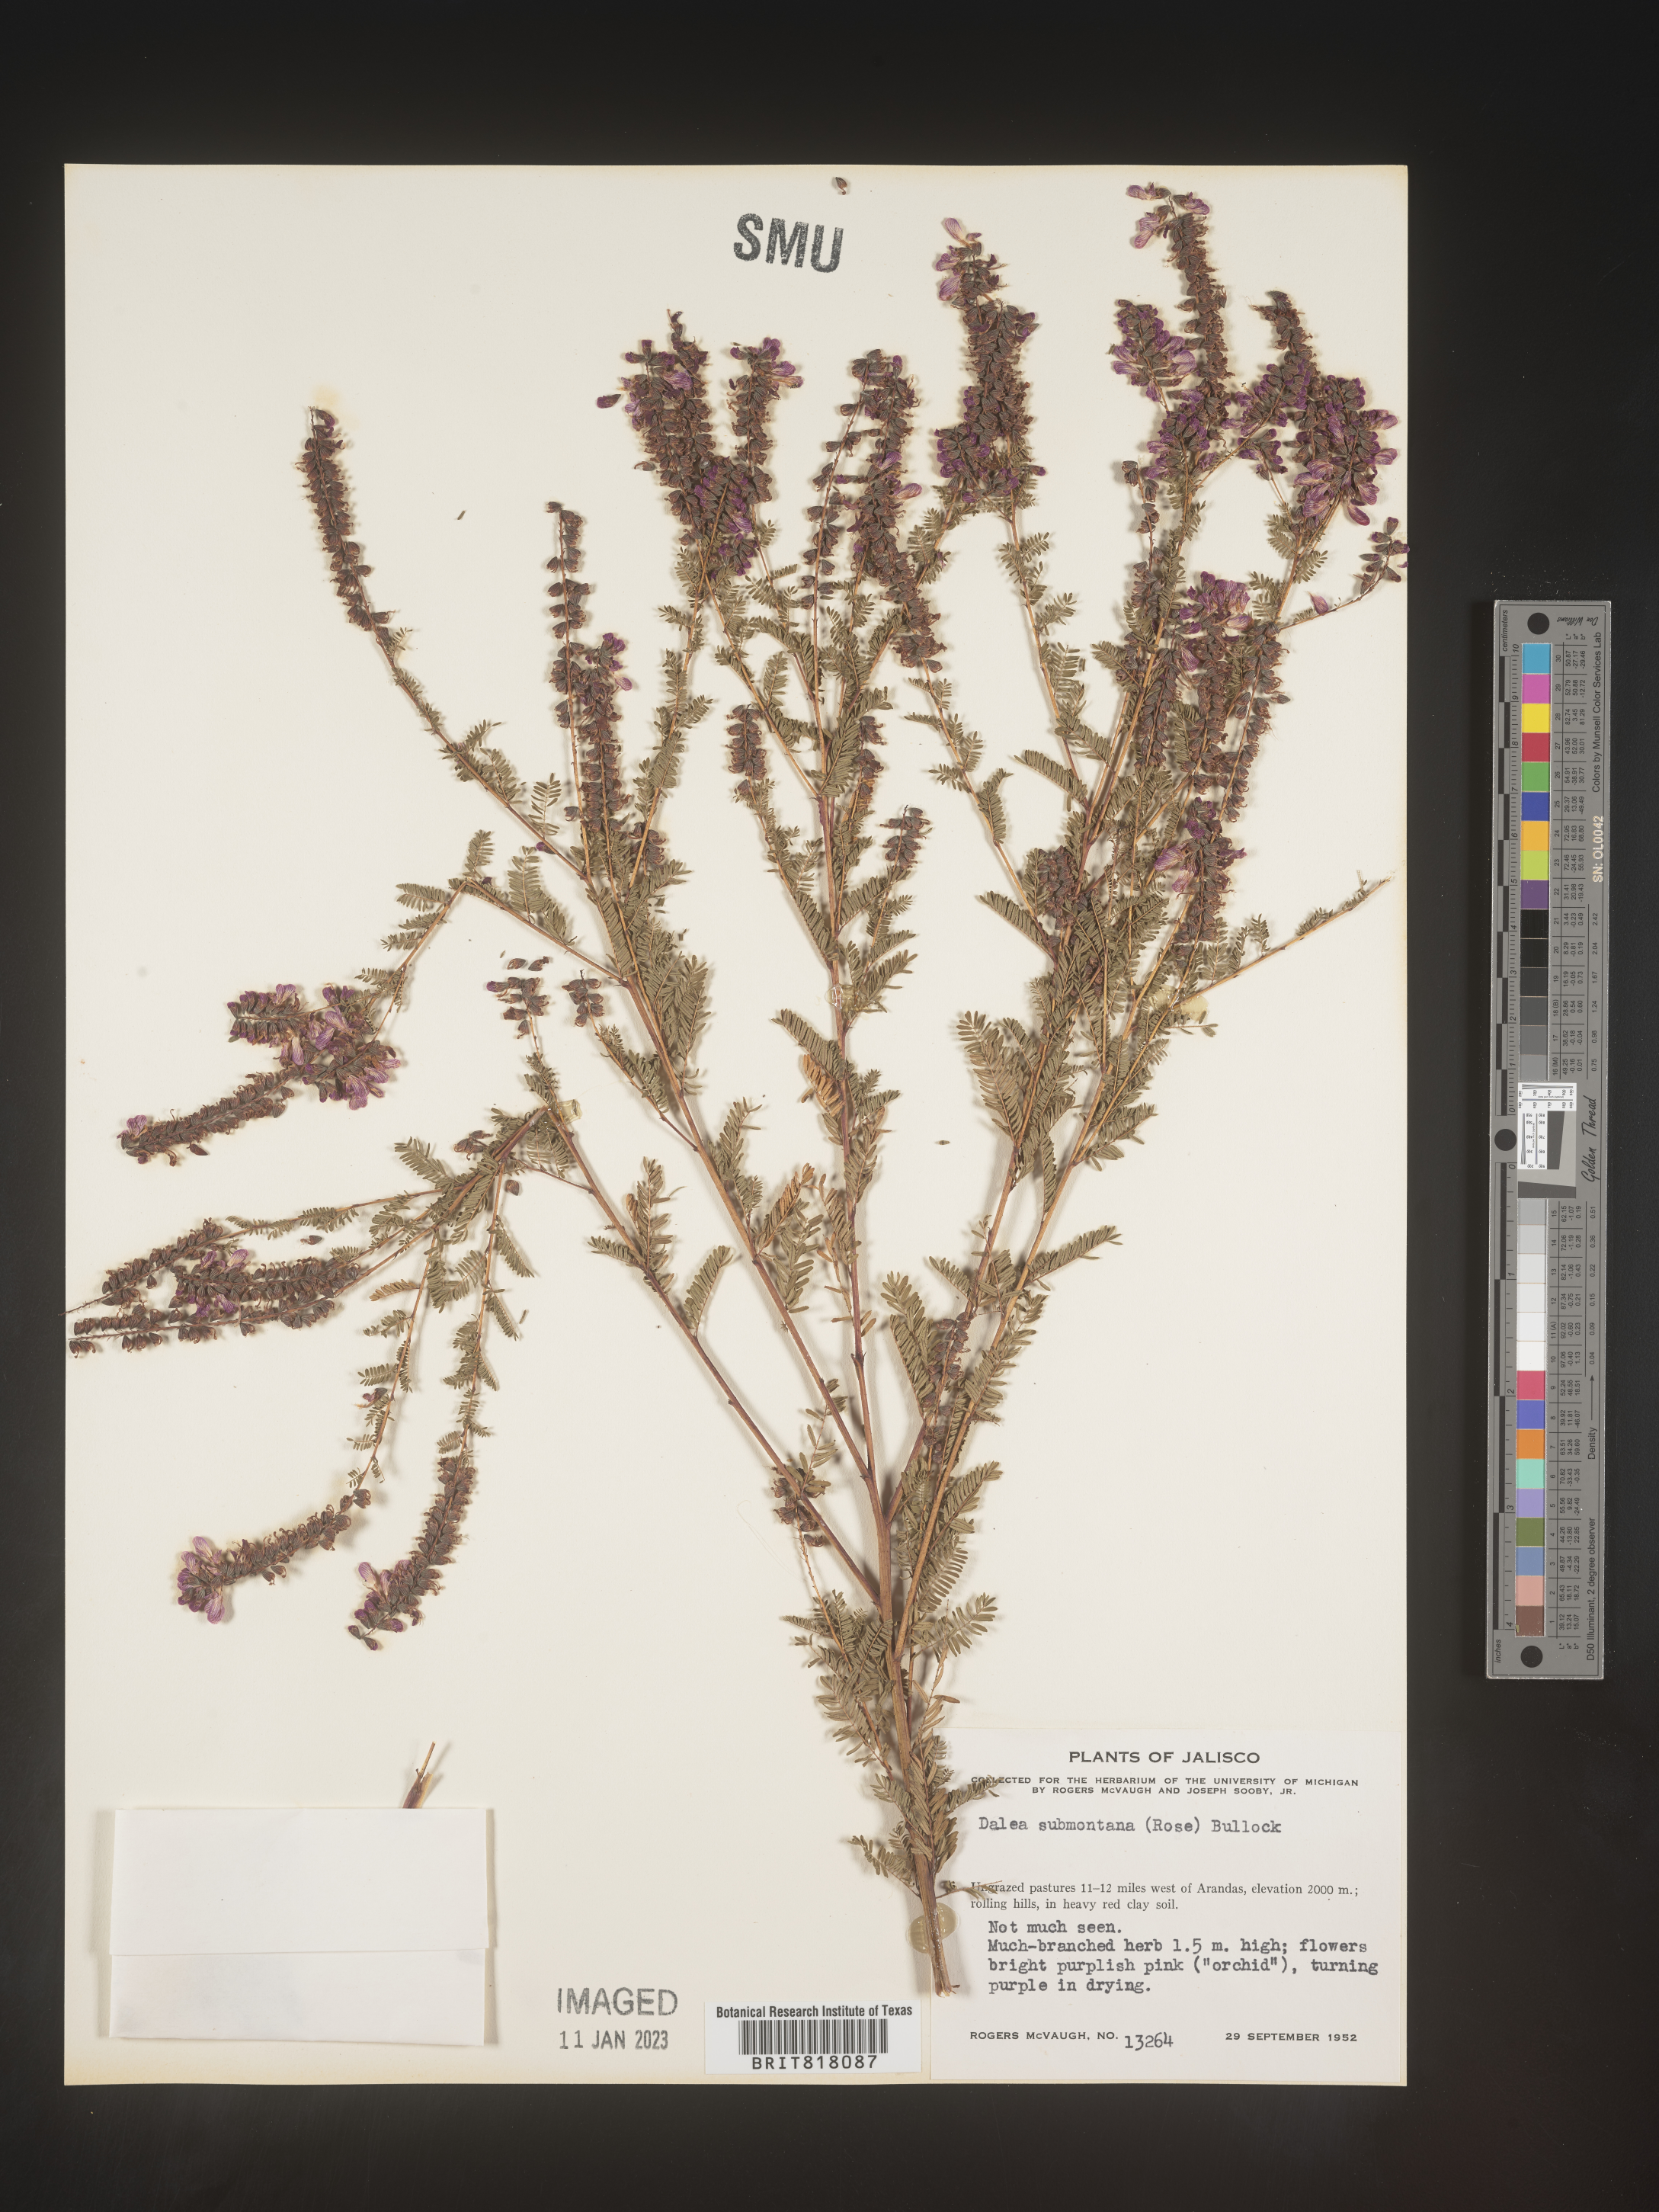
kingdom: Plantae
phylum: Tracheophyta
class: Magnoliopsida
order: Fabales
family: Fabaceae
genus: Dalea
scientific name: Dalea
